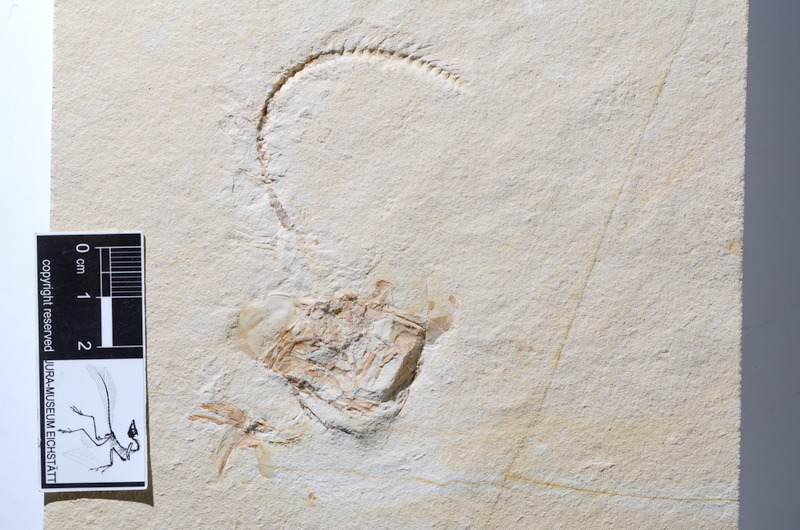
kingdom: Animalia
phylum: Chordata
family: Ascalaboidae
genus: Tharsis
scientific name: Tharsis dubius
